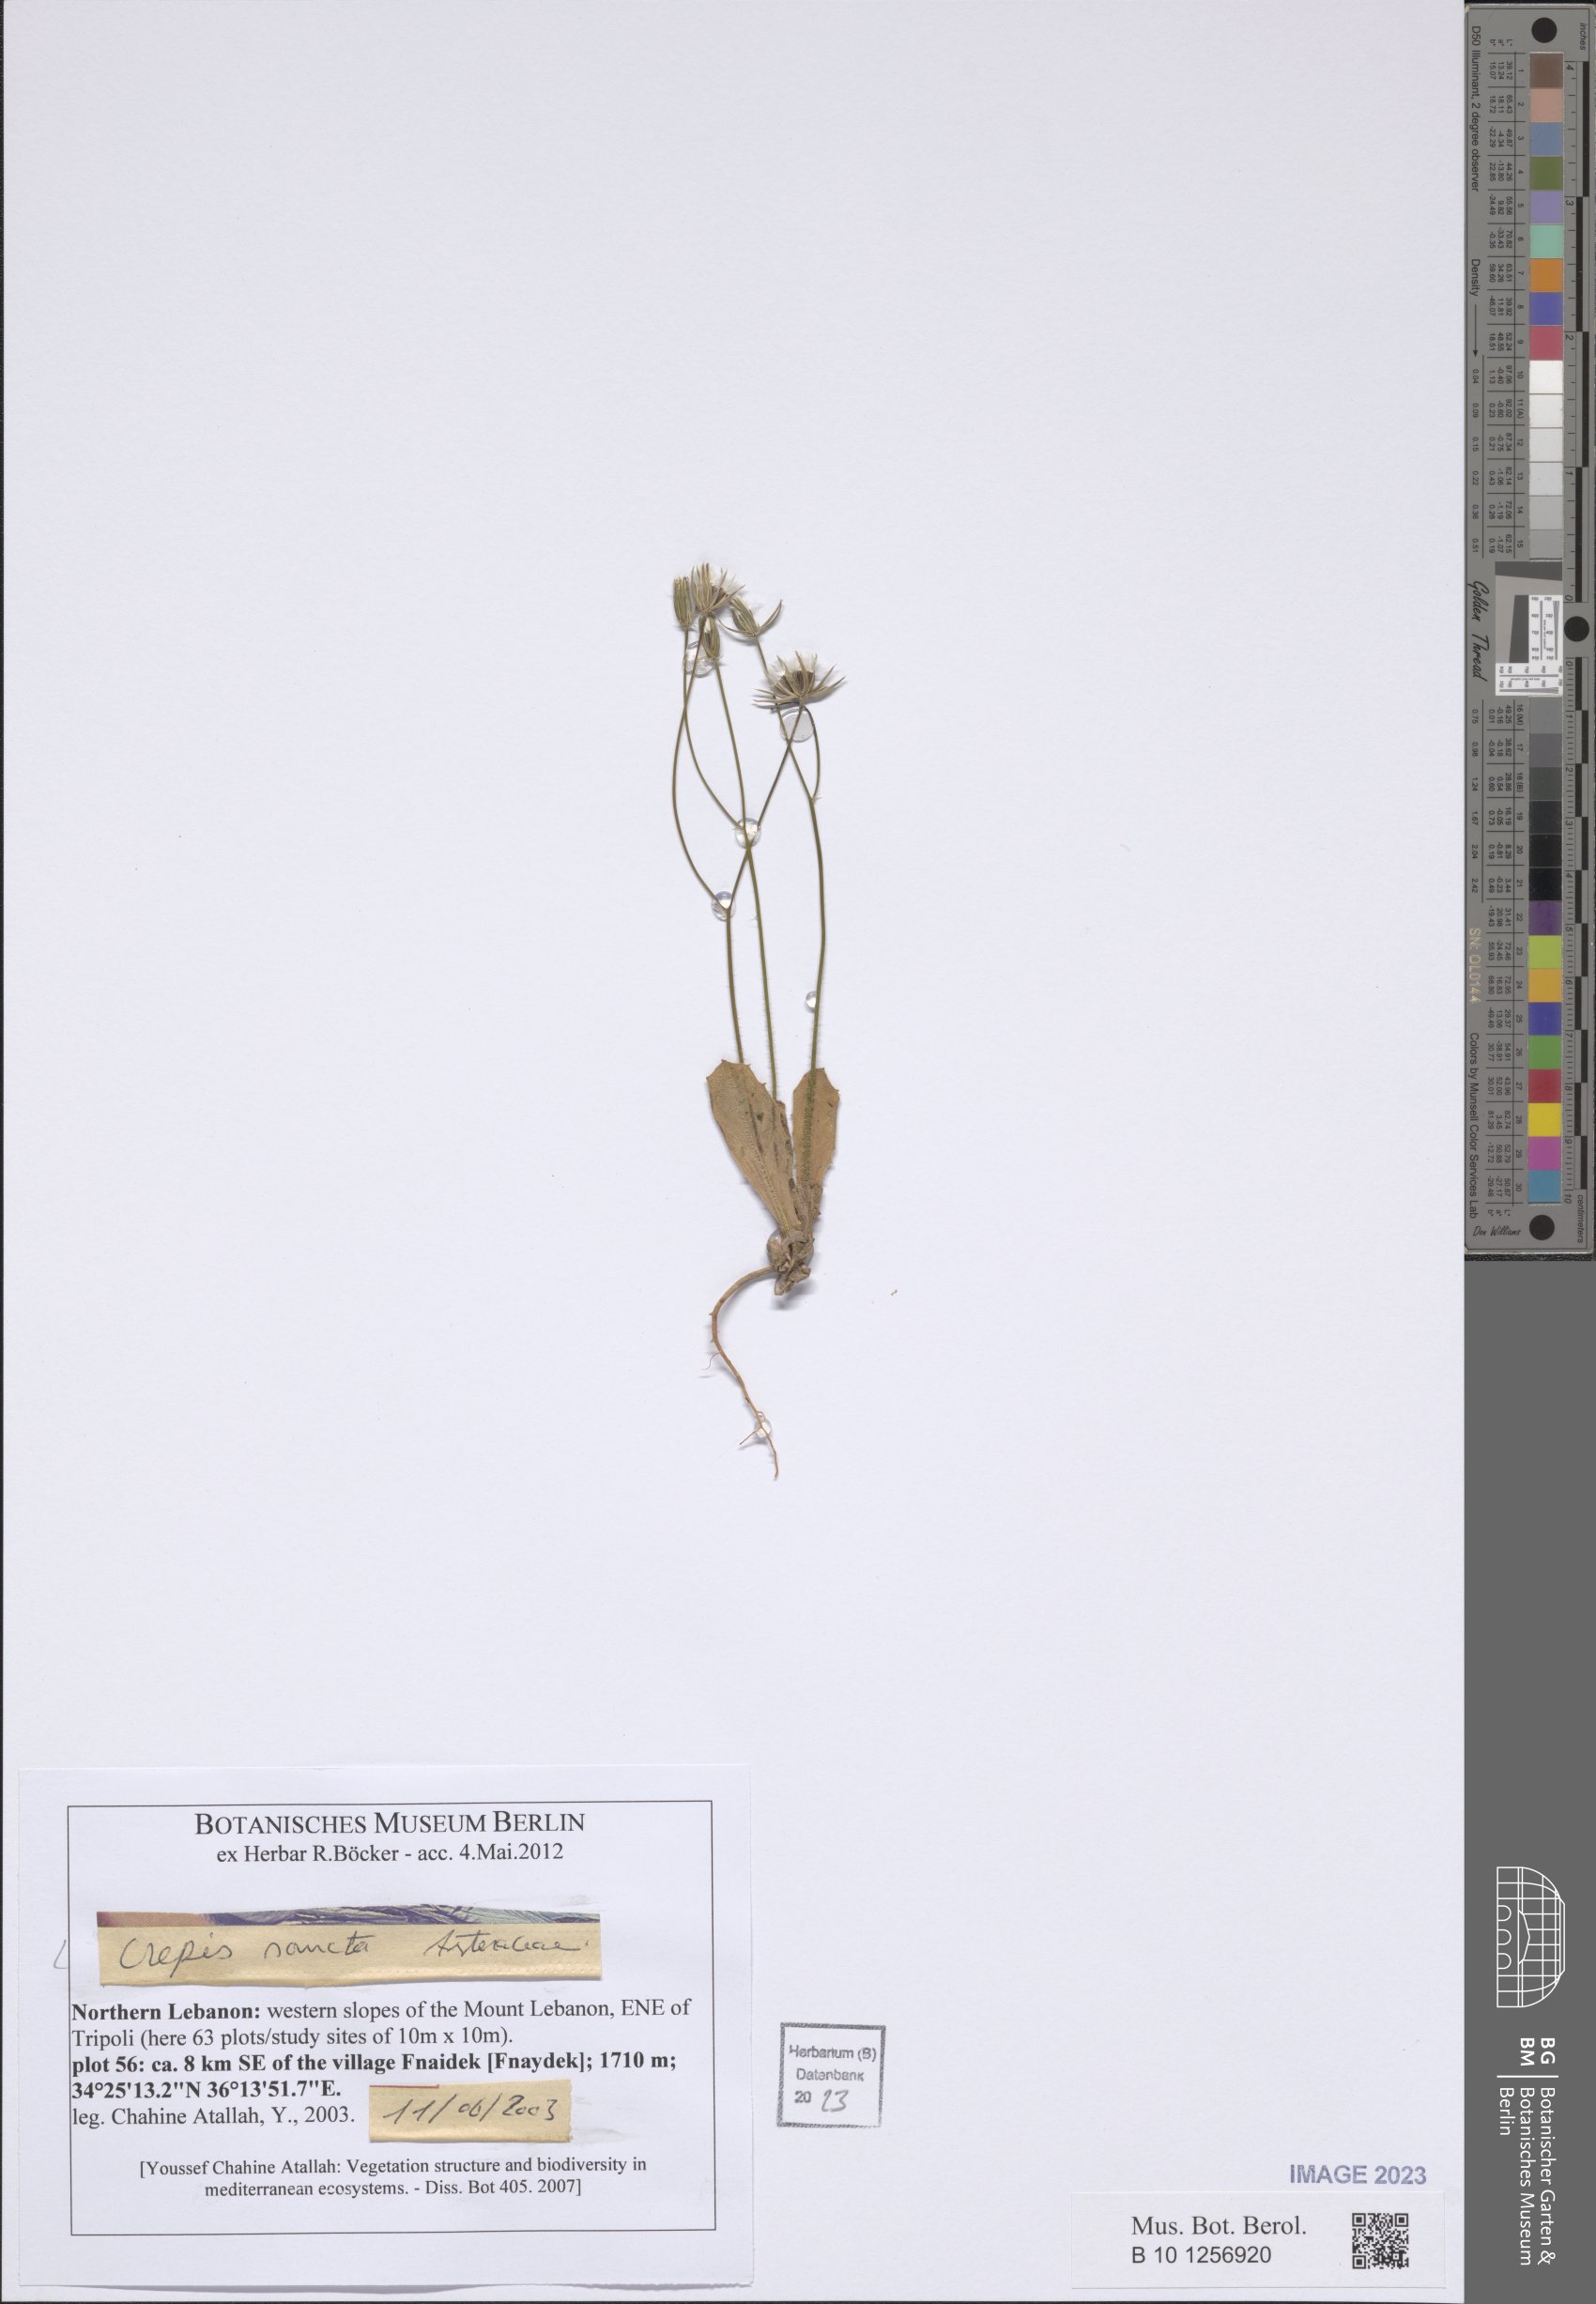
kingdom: Plantae
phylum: Tracheophyta
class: Magnoliopsida
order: Asterales
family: Asteraceae
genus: Crepis
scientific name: Crepis sancta
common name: Hawk's-beard
